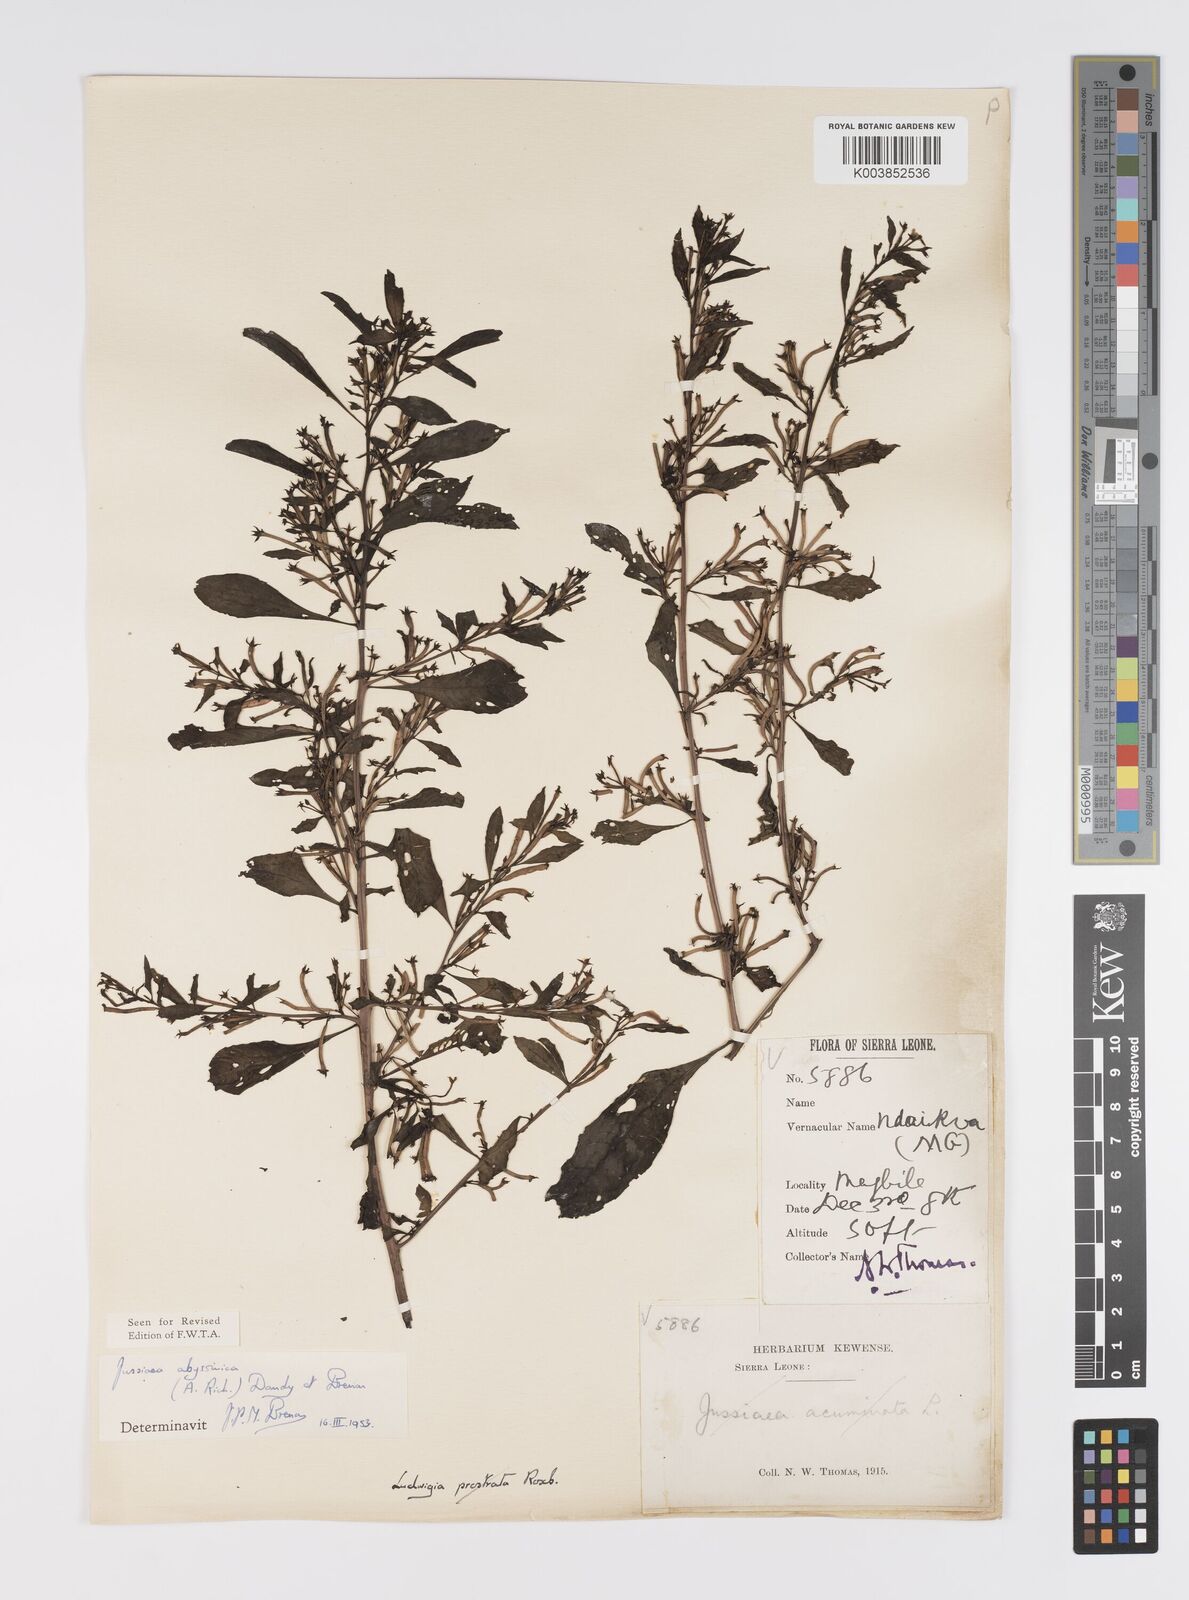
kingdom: Plantae
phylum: Tracheophyta
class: Magnoliopsida
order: Myrtales
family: Onagraceae
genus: Ludwigia
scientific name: Ludwigia abyssinica
